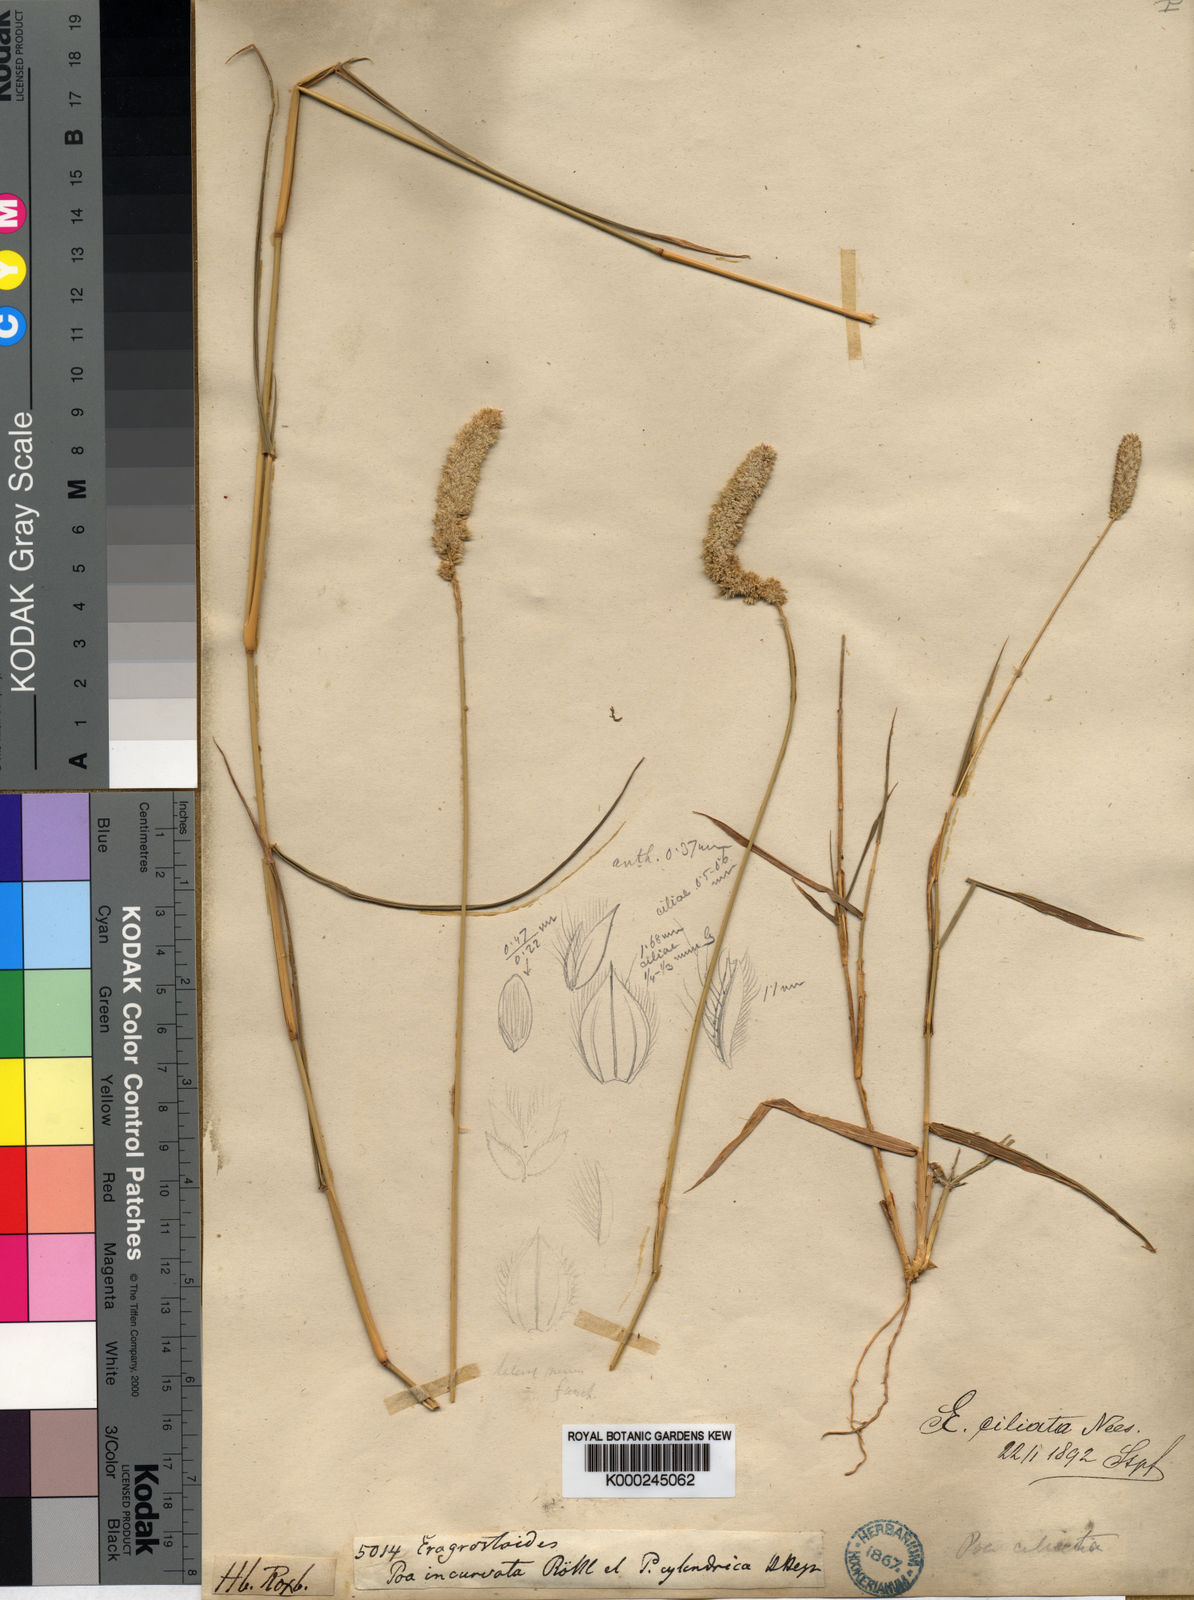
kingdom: Plantae
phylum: Tracheophyta
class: Liliopsida
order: Poales
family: Poaceae
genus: Eragrostis
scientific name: Eragrostis ciliata
